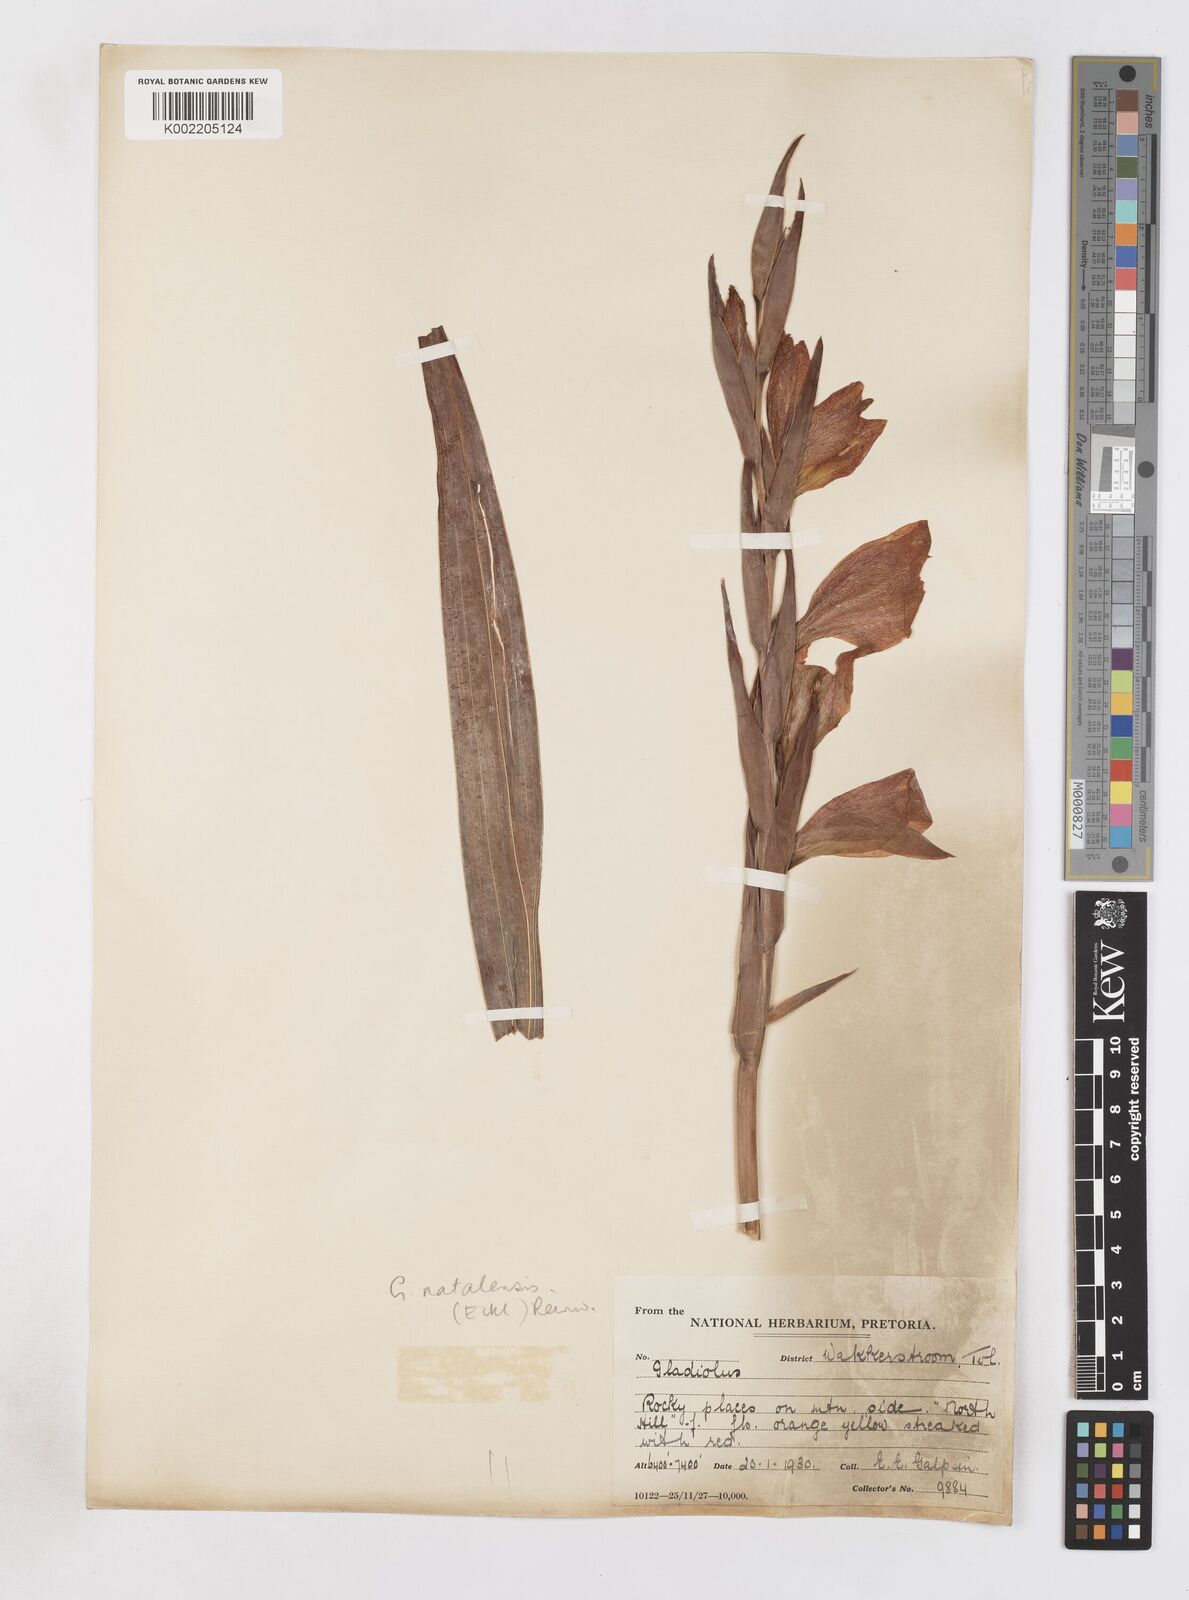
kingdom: Plantae
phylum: Tracheophyta
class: Liliopsida
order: Asparagales
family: Iridaceae
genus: Gladiolus
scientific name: Gladiolus dalenii
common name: Cornflag
